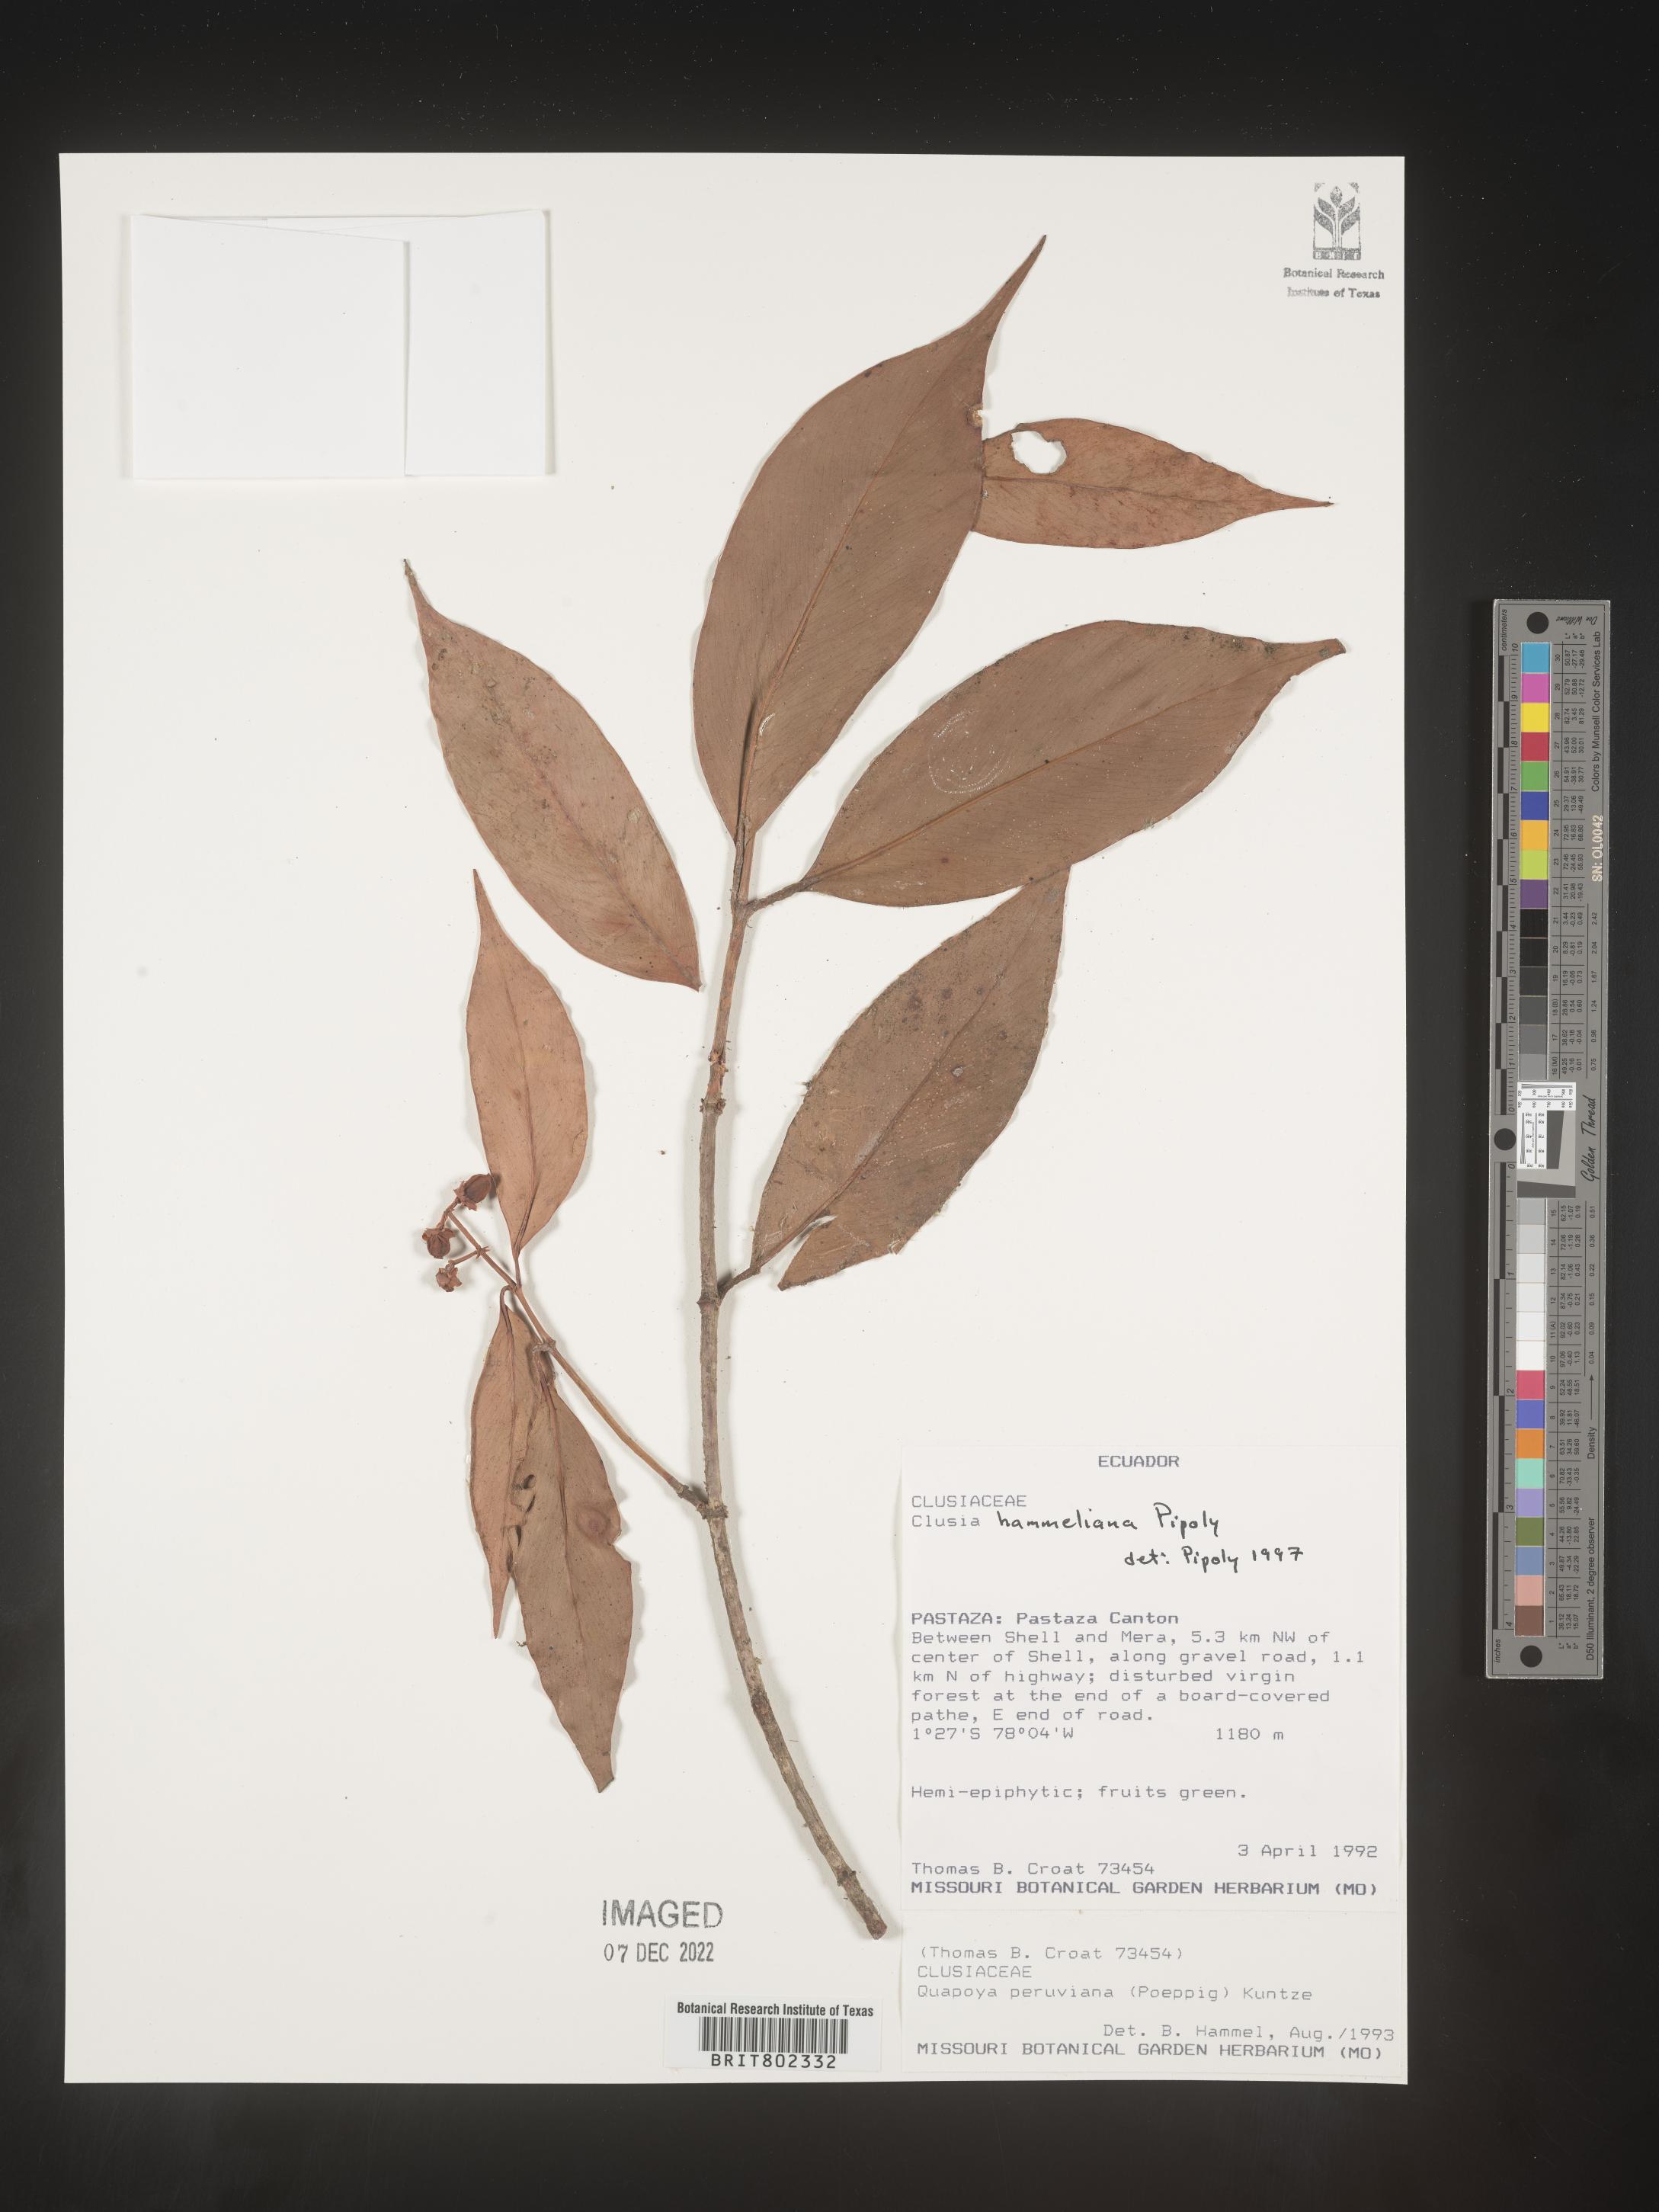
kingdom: Plantae
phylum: Tracheophyta
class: Magnoliopsida
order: Malpighiales
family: Clusiaceae
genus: Clusia
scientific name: Clusia hammeliana
